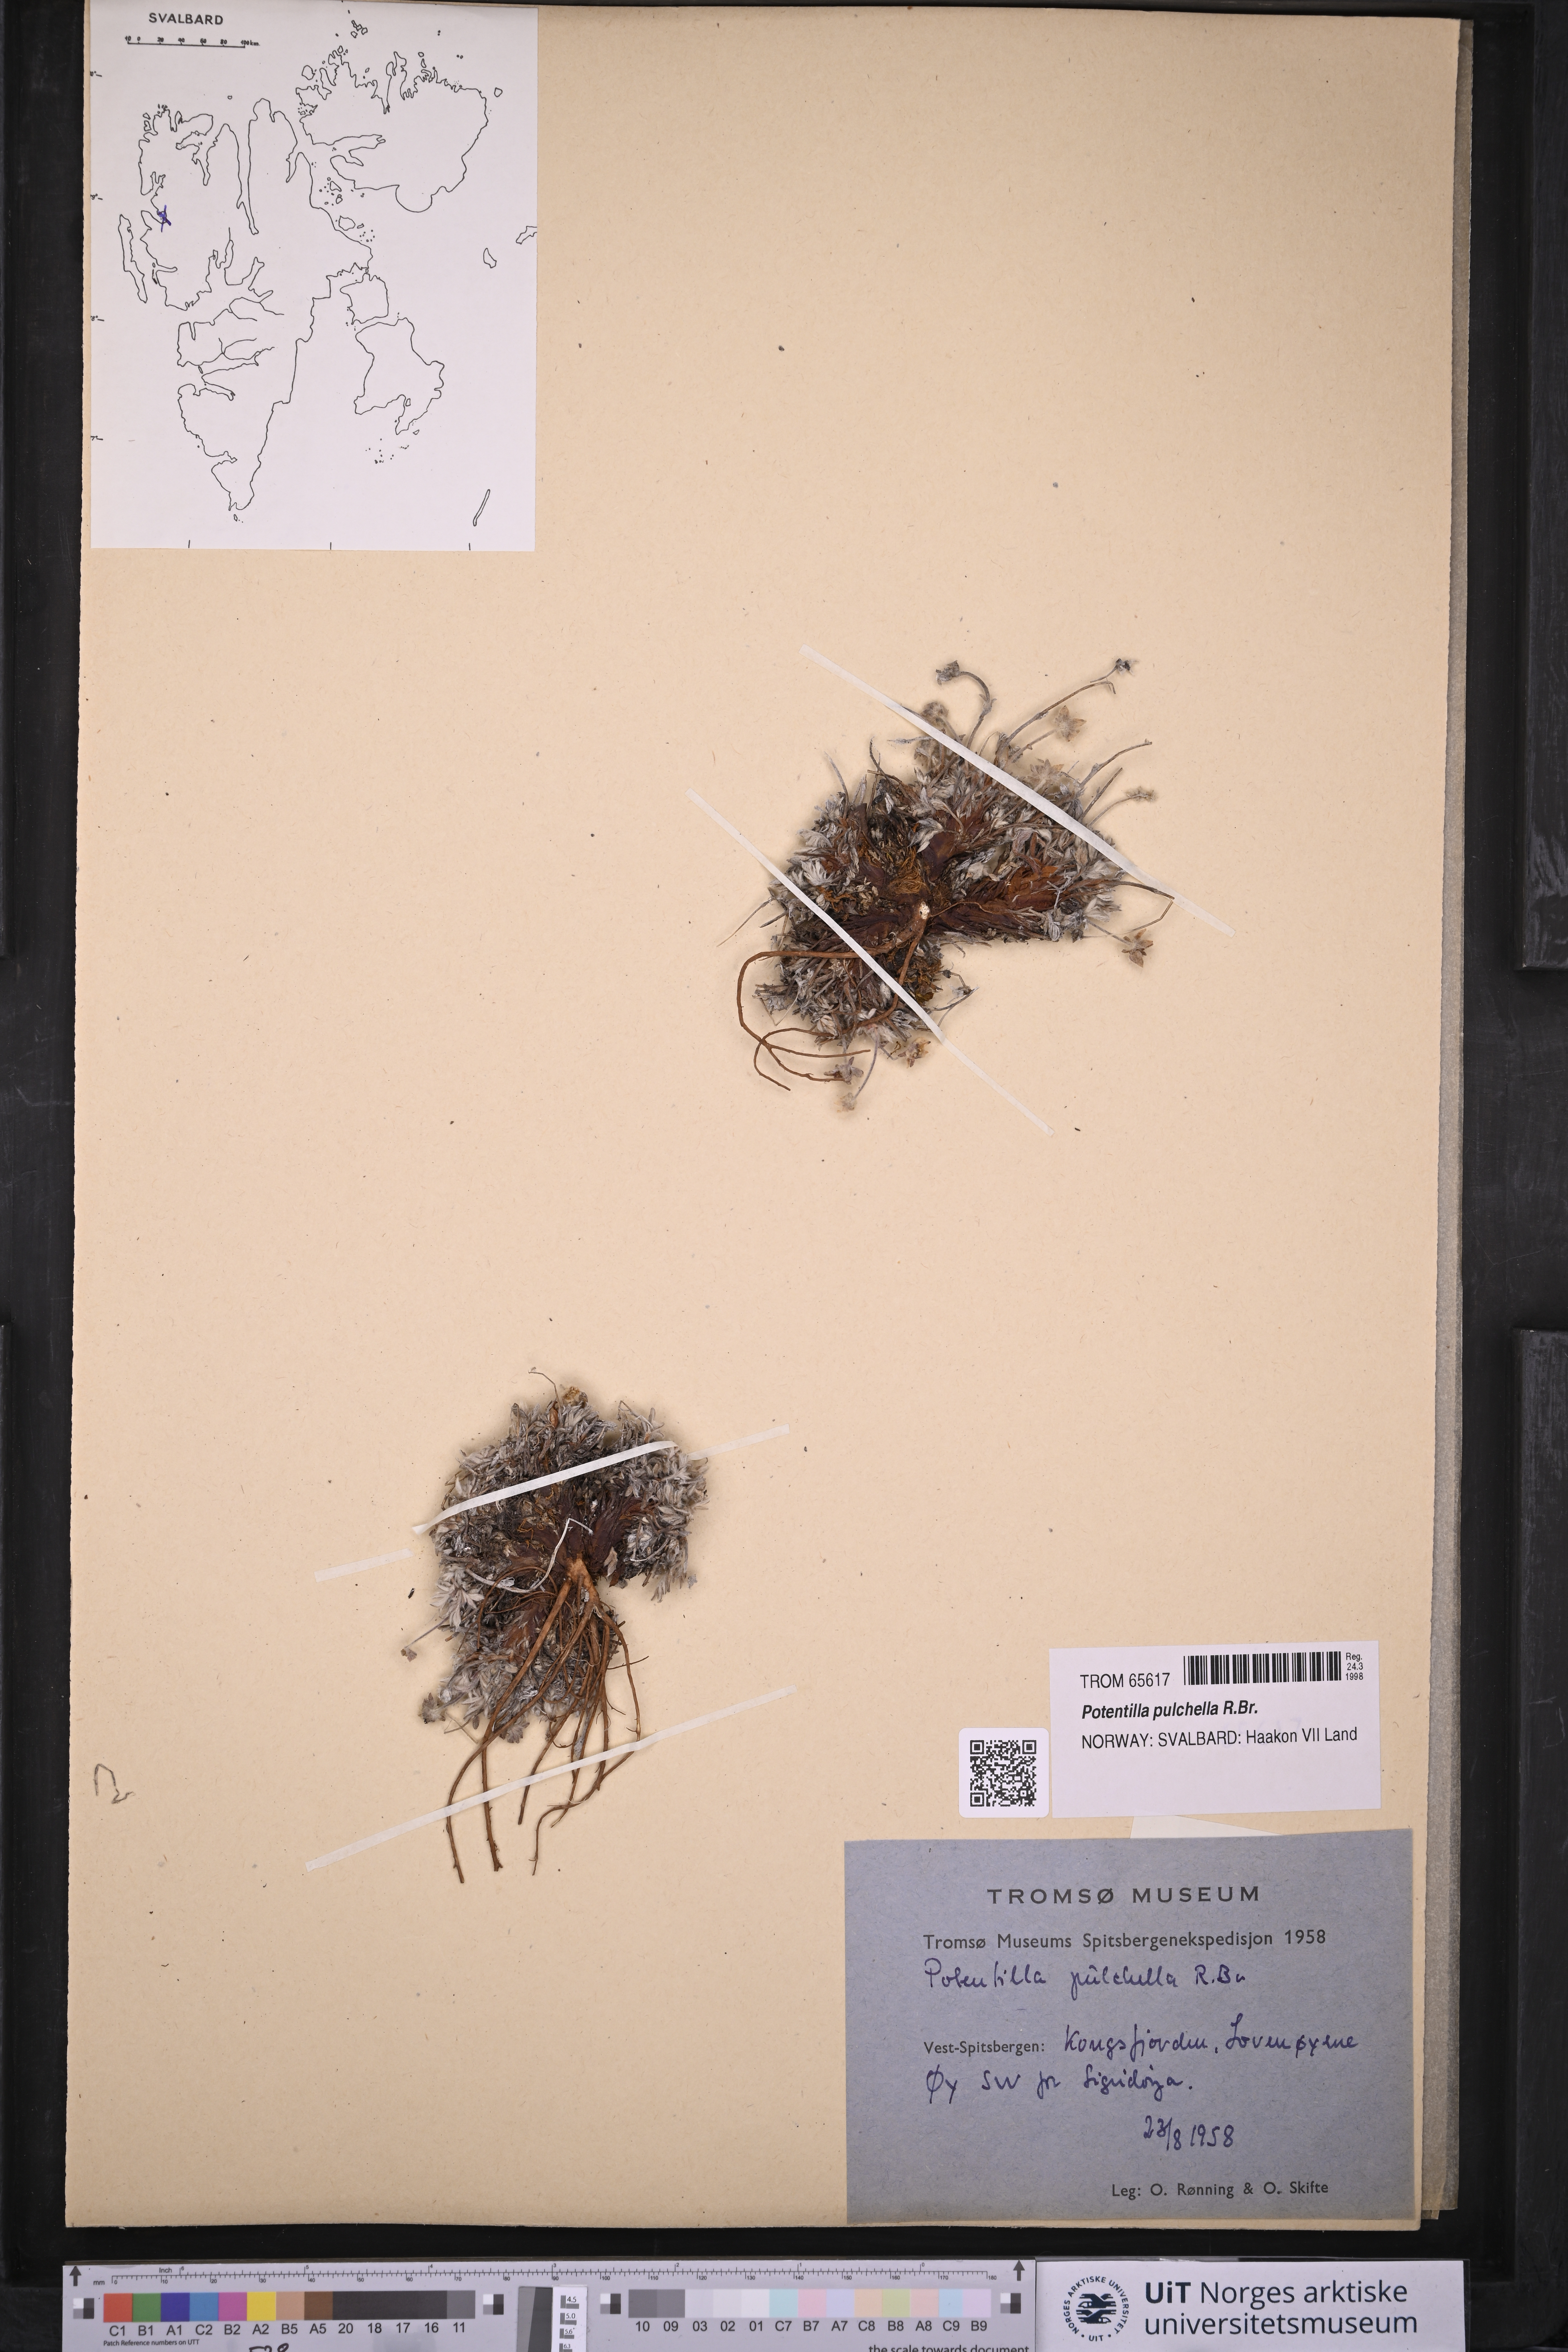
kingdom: Plantae
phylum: Tracheophyta
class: Magnoliopsida
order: Rosales
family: Rosaceae
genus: Potentilla
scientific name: Potentilla pulchella
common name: Pretty cinquefoil
